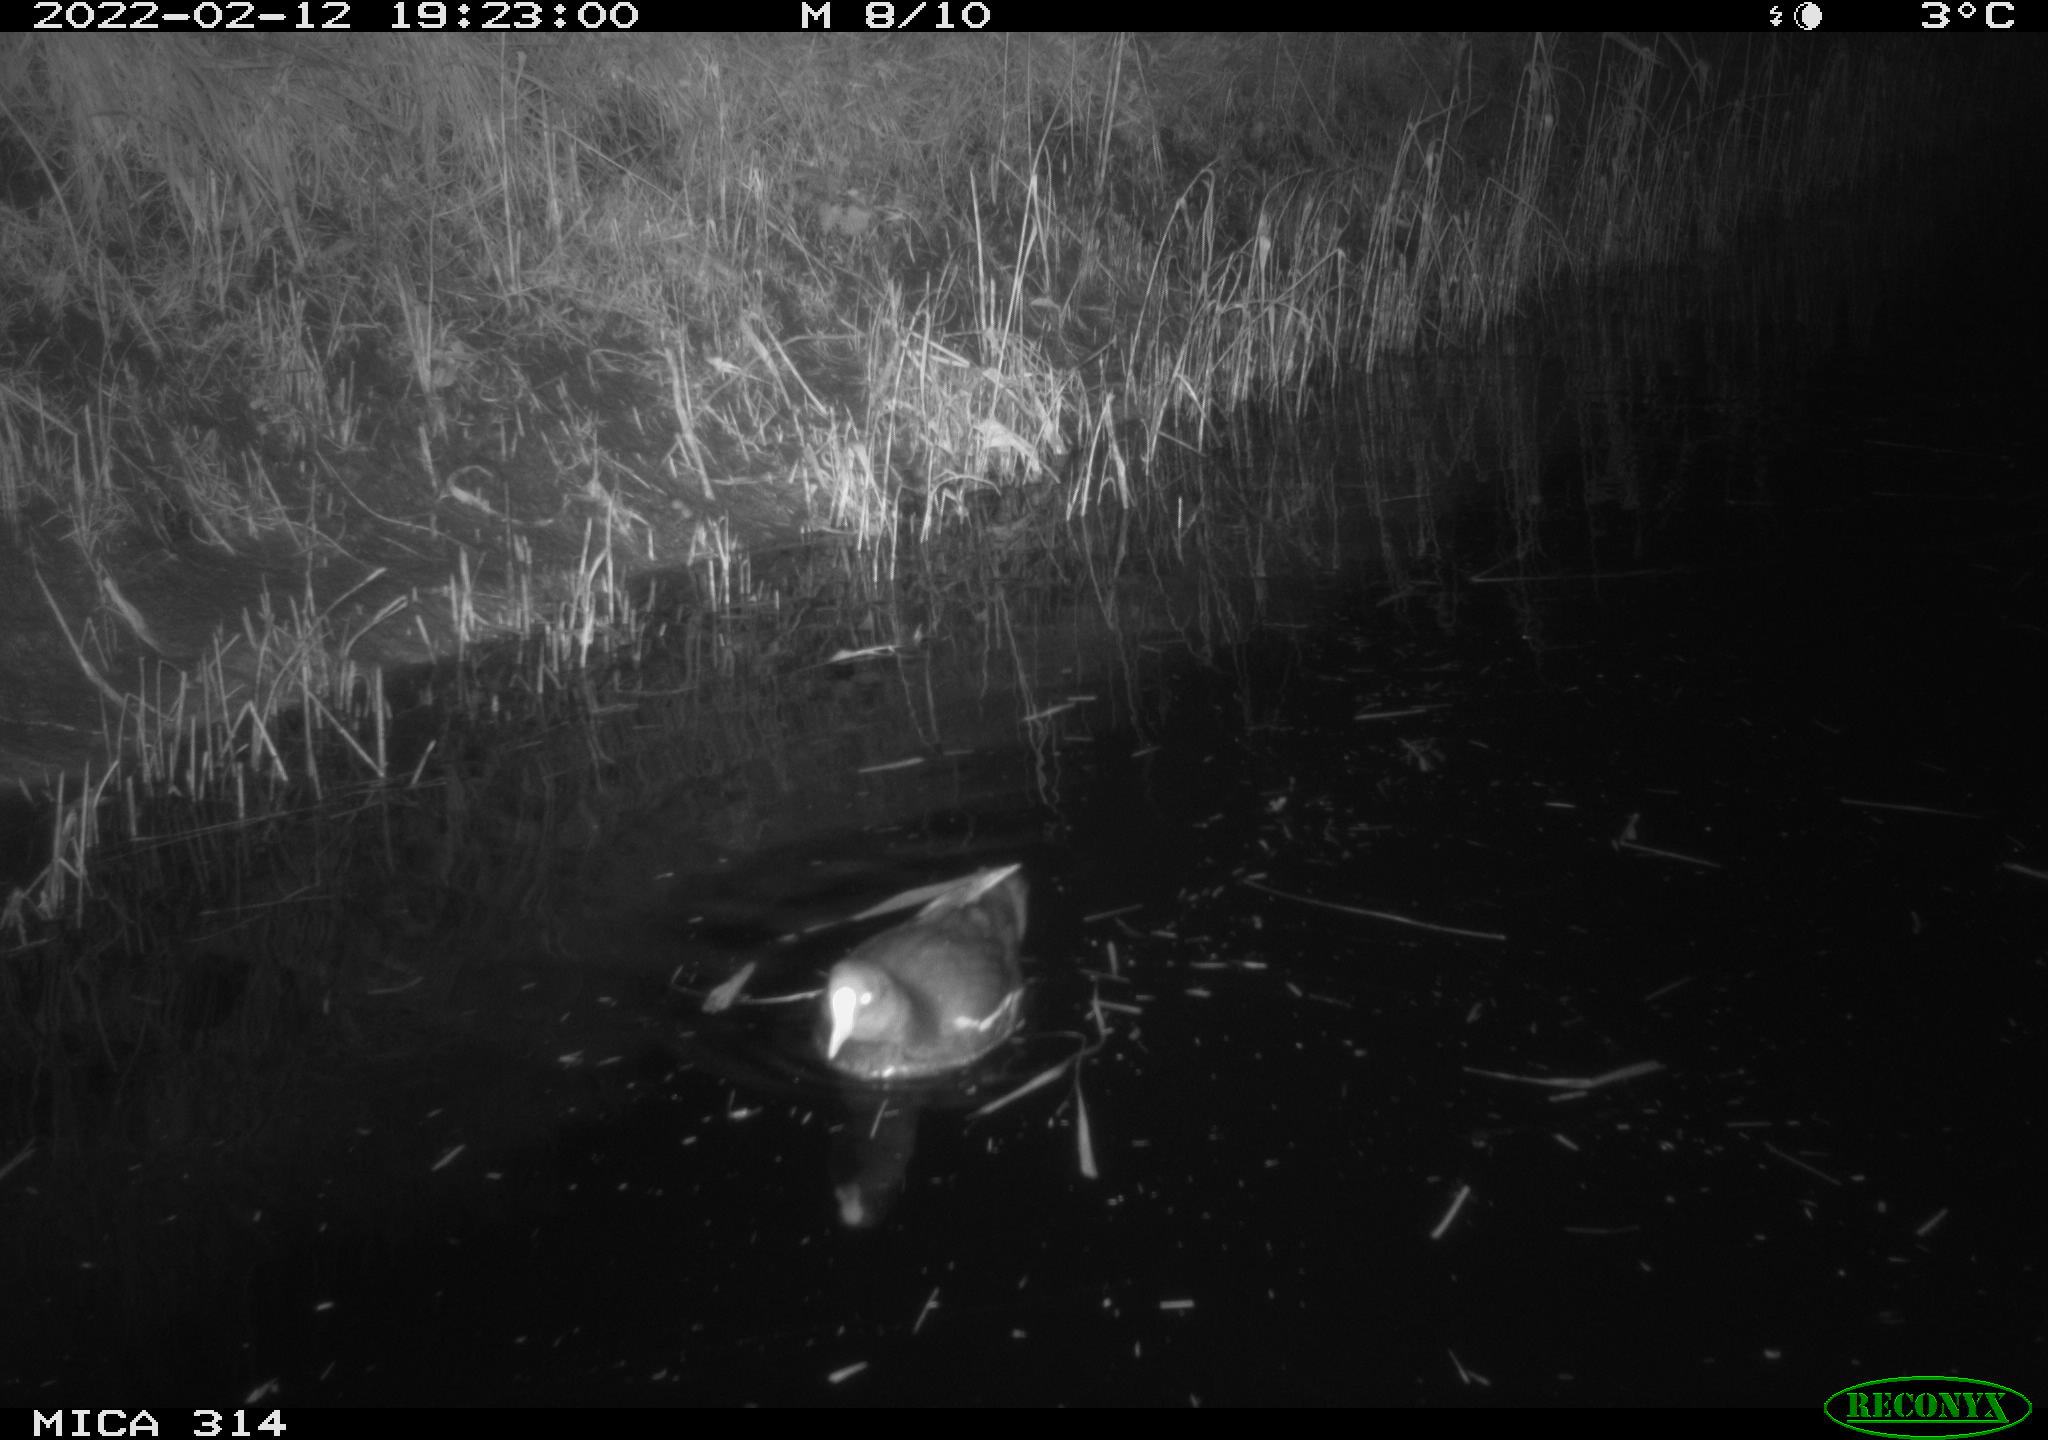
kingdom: Animalia
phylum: Chordata
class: Aves
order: Gruiformes
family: Rallidae
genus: Gallinula
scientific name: Gallinula chloropus
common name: Common moorhen
